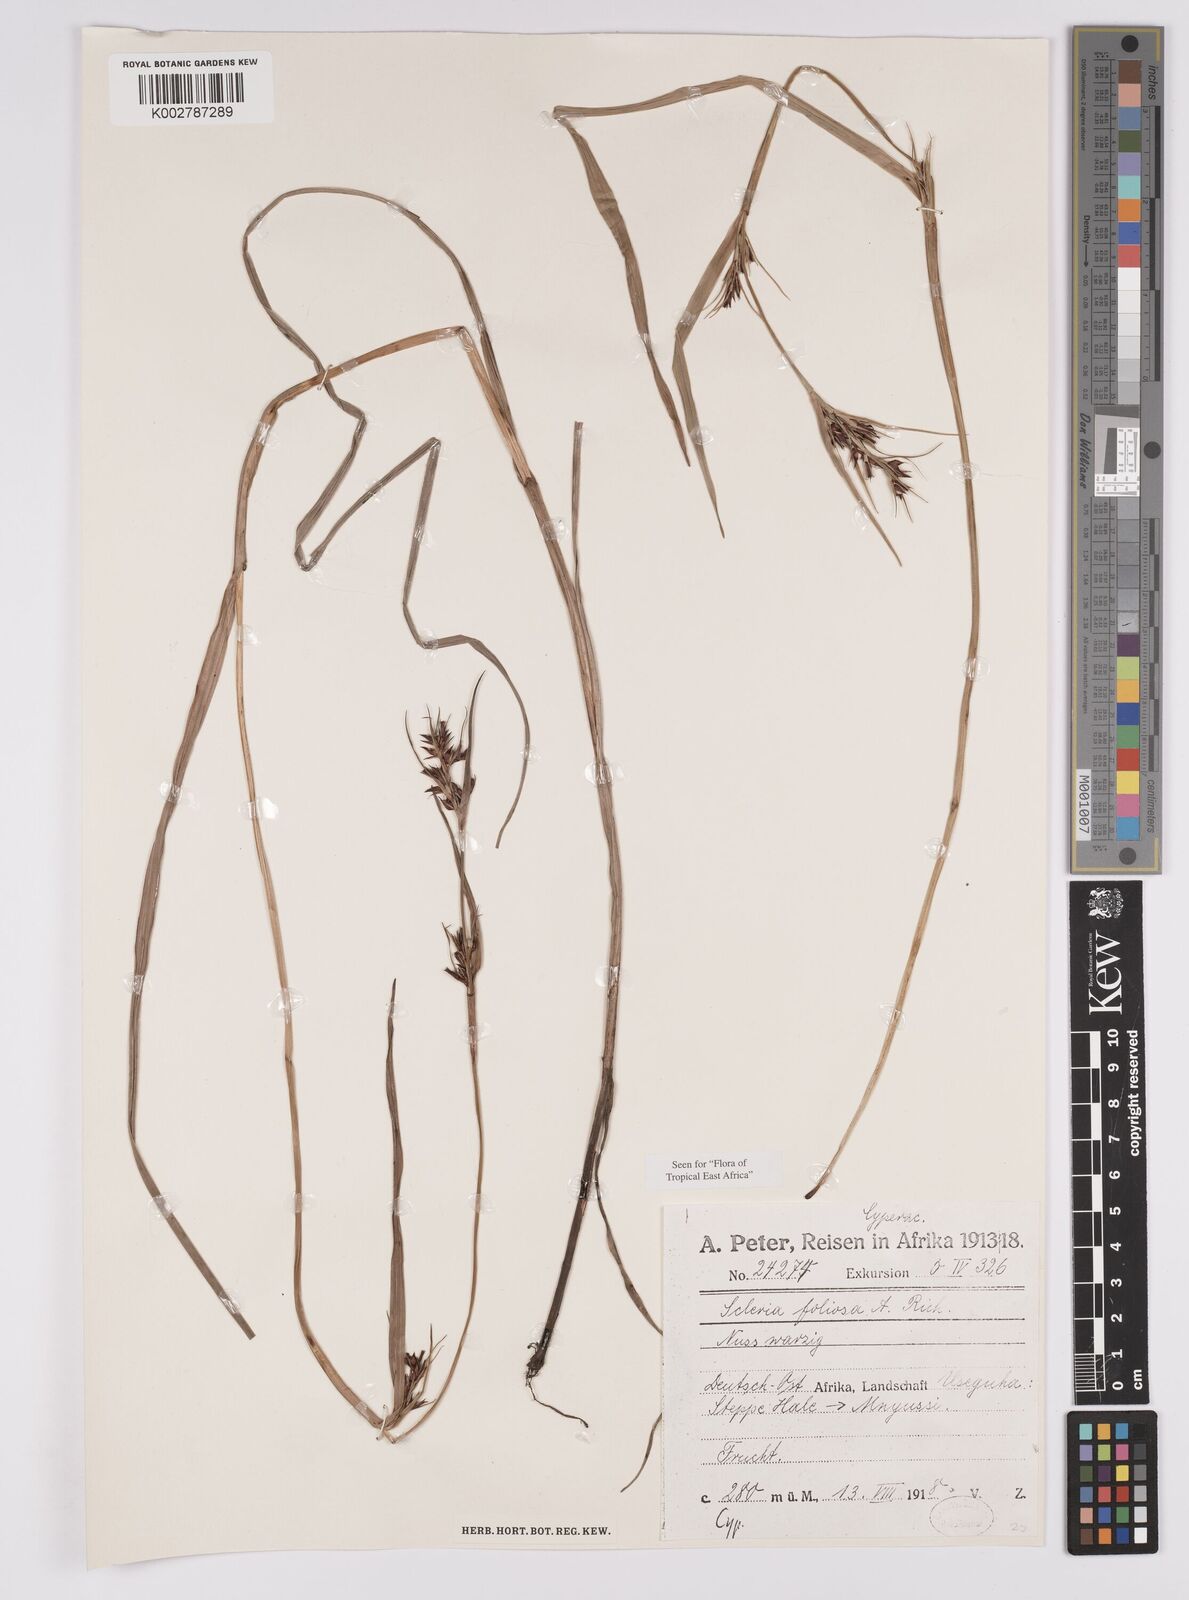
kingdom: Plantae
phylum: Tracheophyta
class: Liliopsida
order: Poales
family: Cyperaceae
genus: Scleria
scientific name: Scleria foliosa
